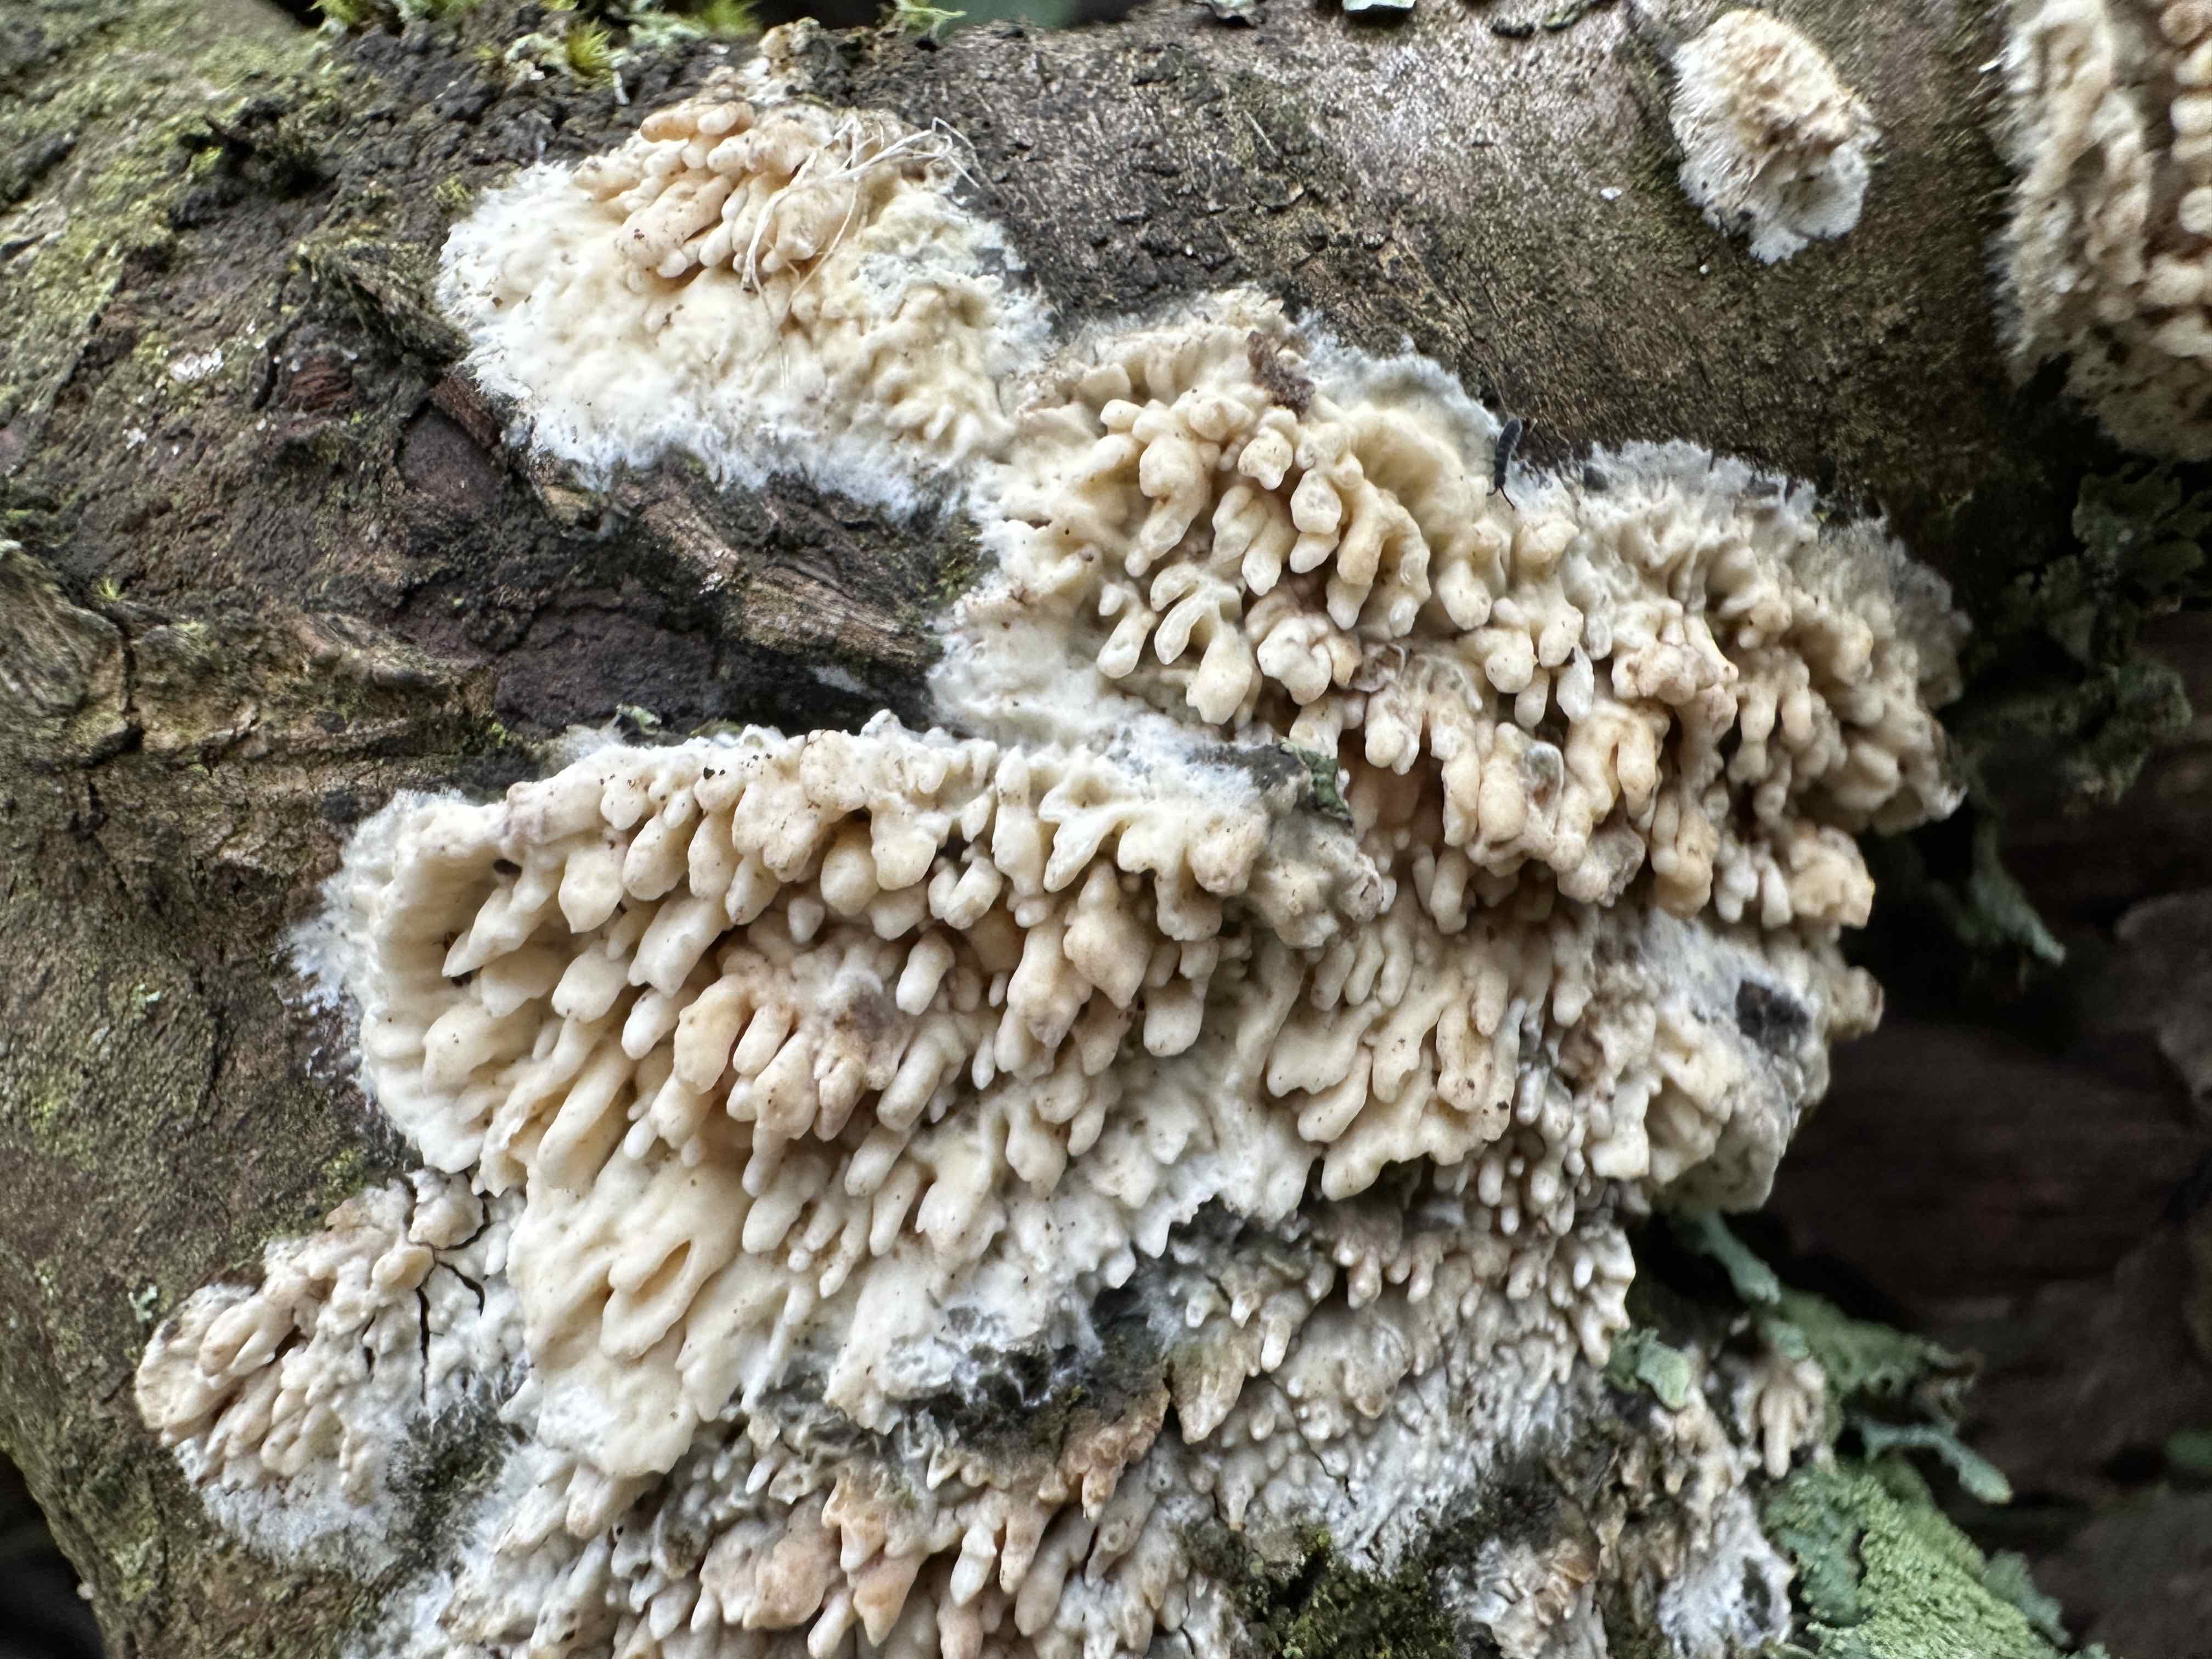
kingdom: Fungi
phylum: Basidiomycota
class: Agaricomycetes
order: Hymenochaetales
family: Schizoporaceae
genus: Xylodon
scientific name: Xylodon radula
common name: grovtandet kalkskind
